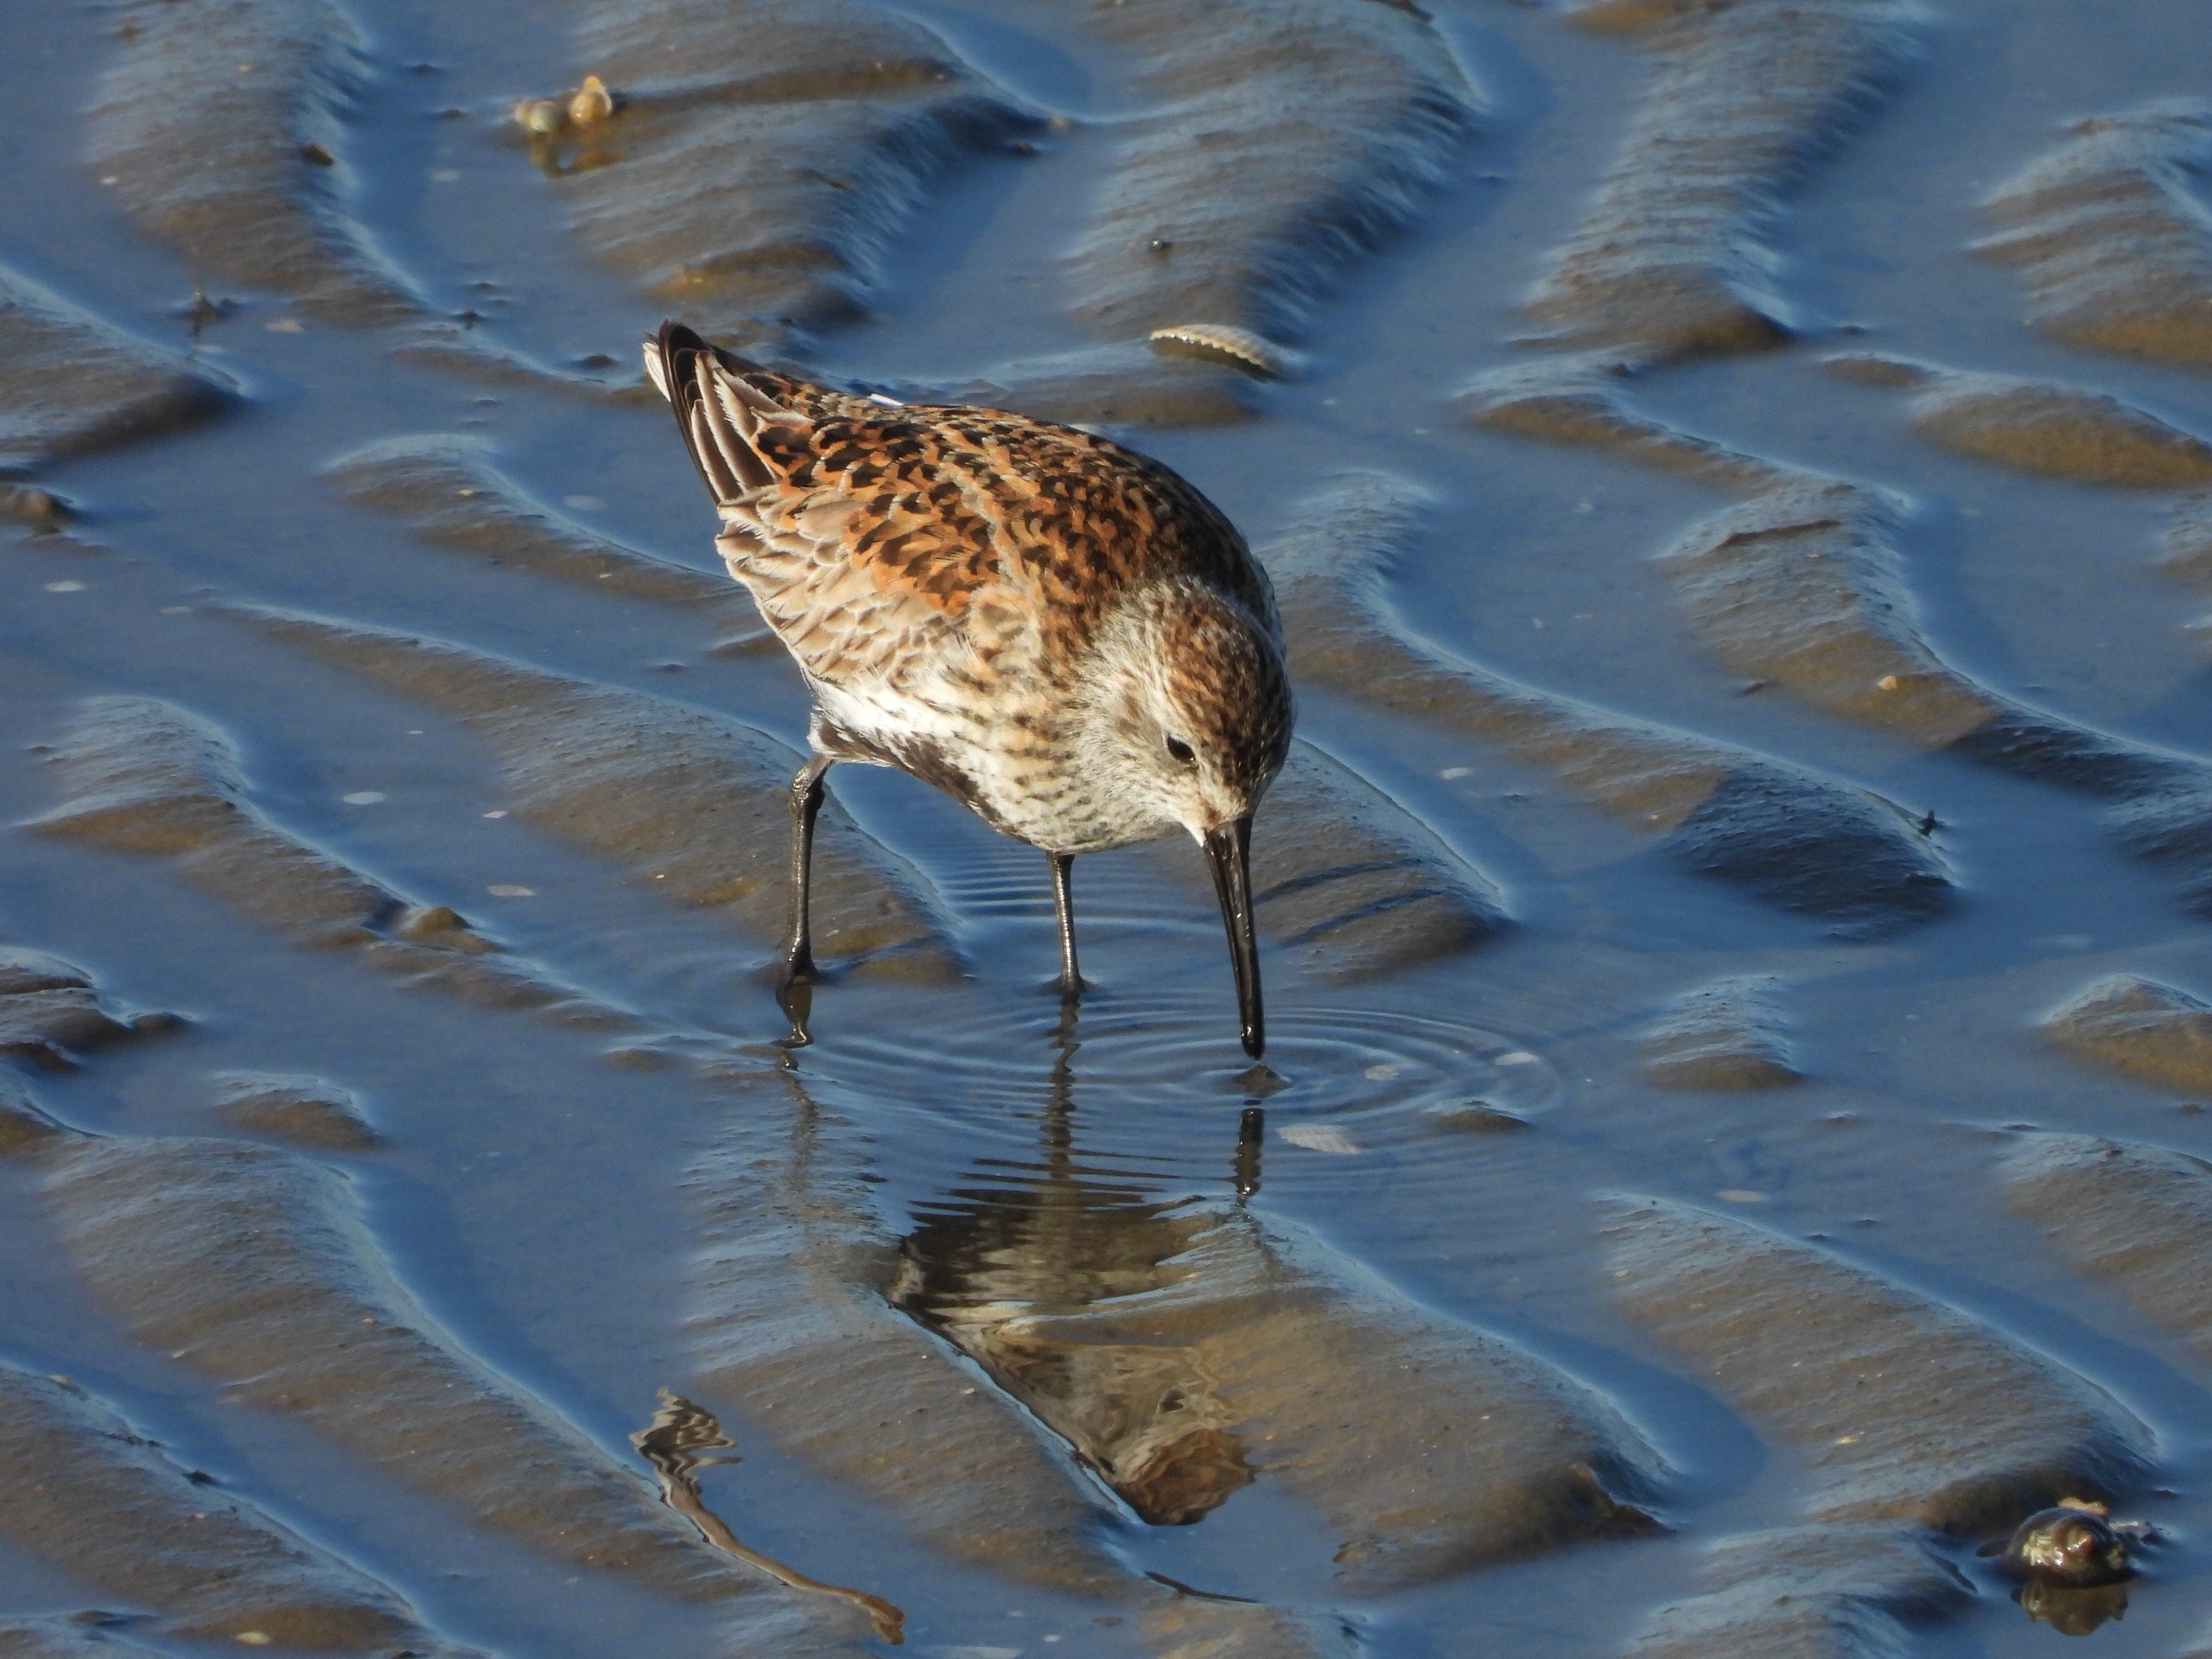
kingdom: Animalia
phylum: Chordata
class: Aves
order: Charadriiformes
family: Scolopacidae
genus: Calidris
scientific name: Calidris alpina
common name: Almindelig ryle
